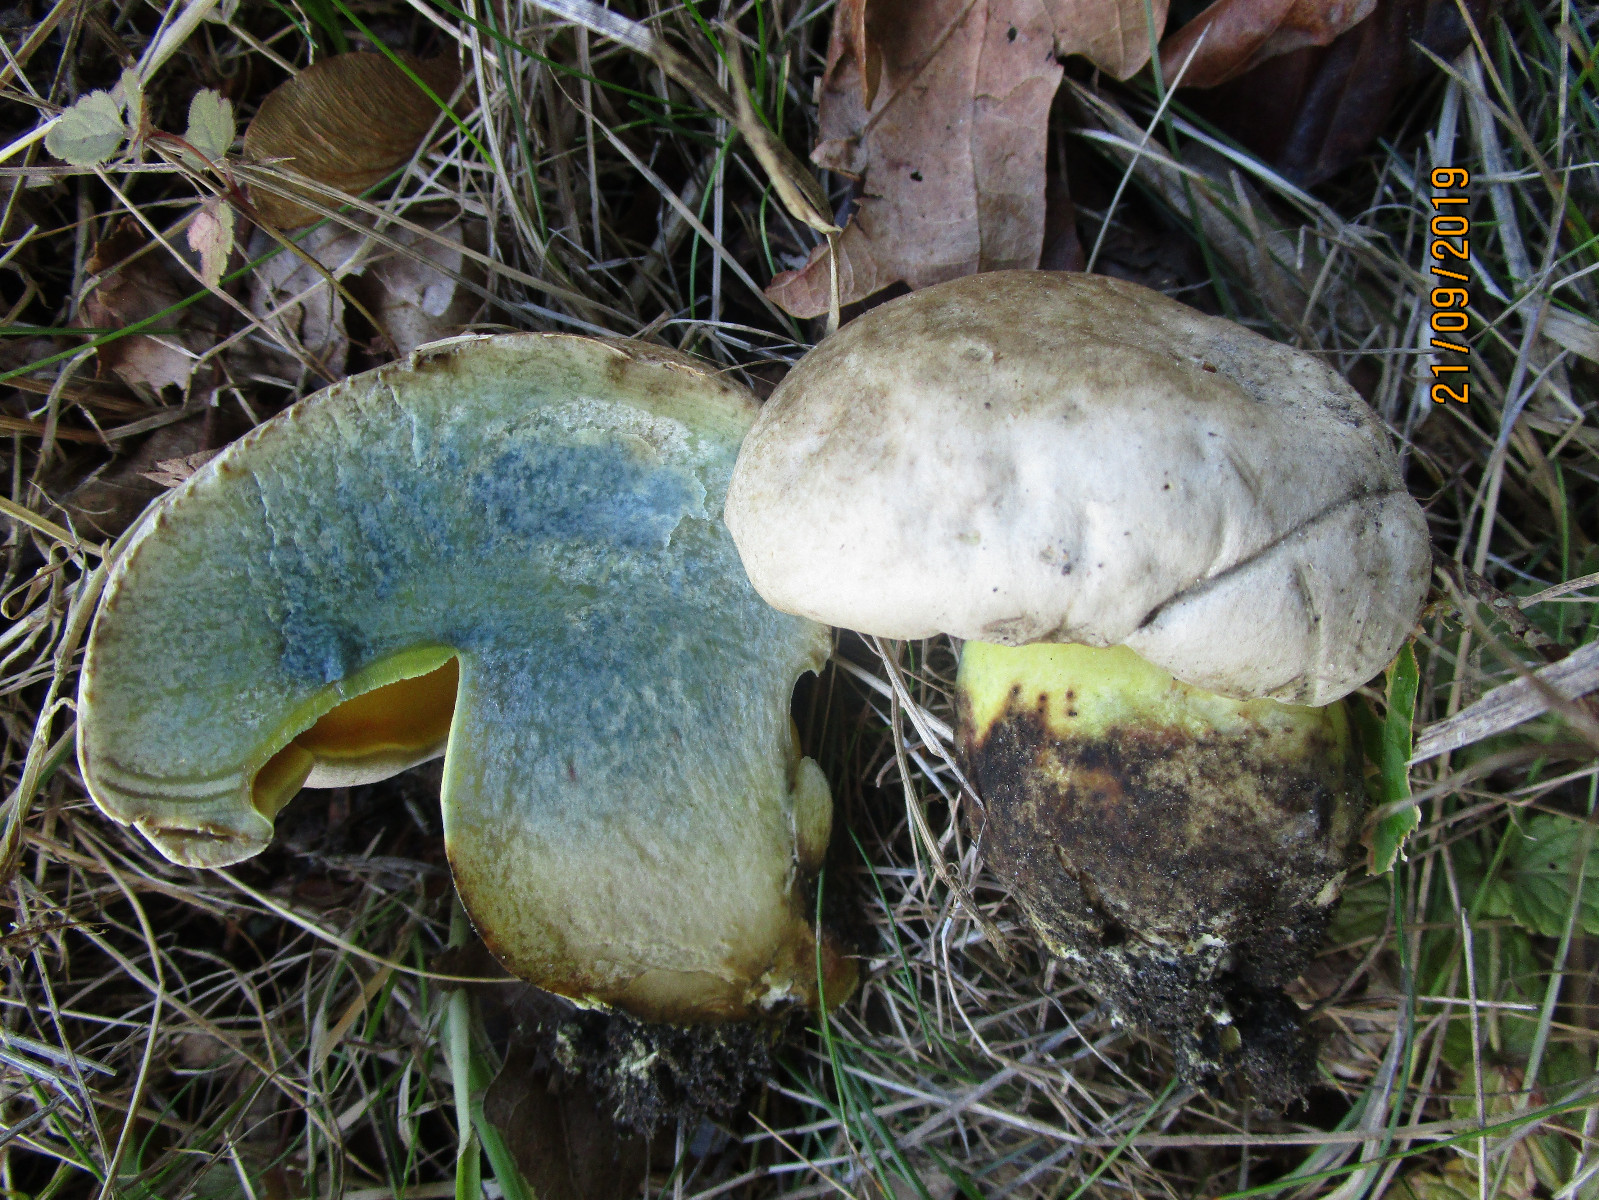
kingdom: Fungi
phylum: Basidiomycota
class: Agaricomycetes
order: Boletales
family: Boletaceae
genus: Caloboletus
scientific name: Caloboletus radicans
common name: rod-rørhat
